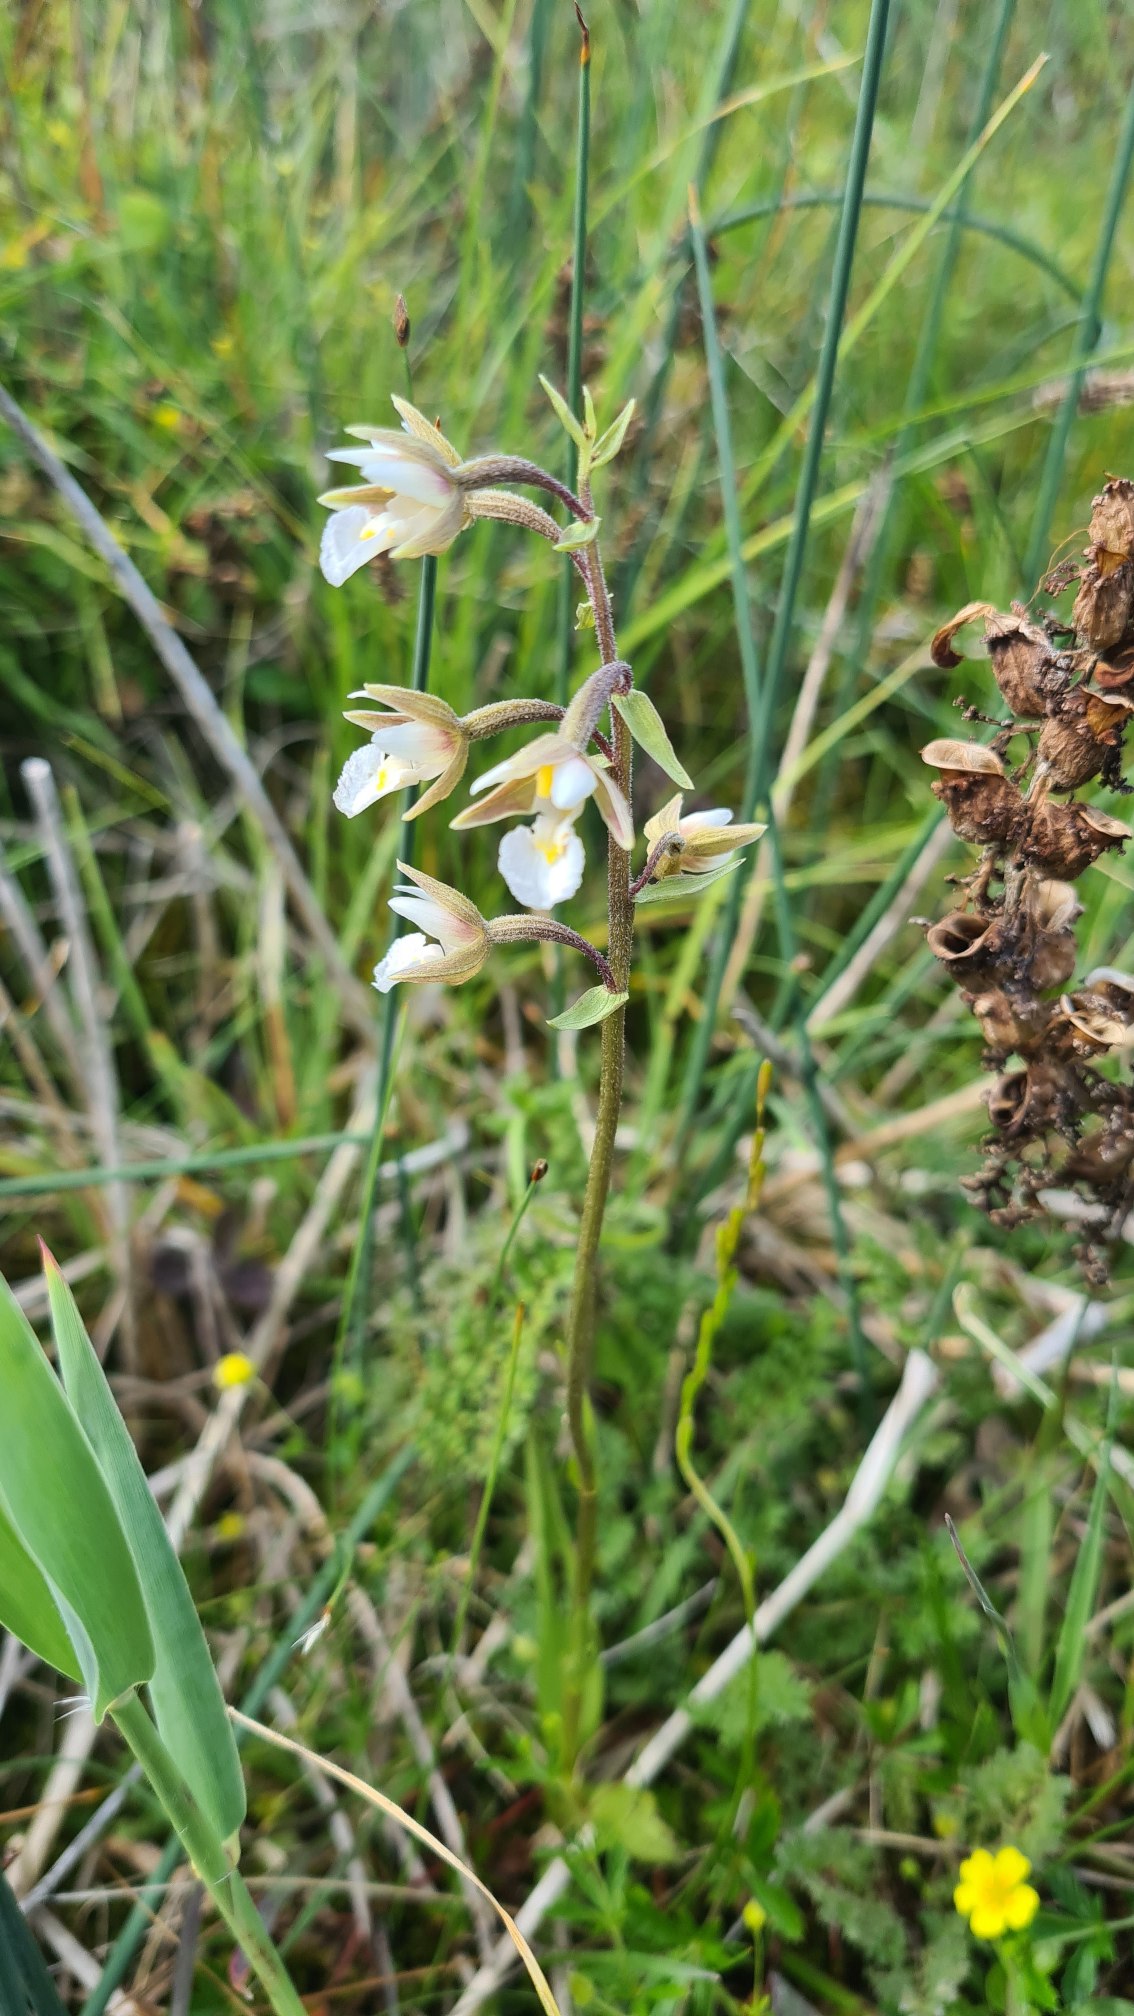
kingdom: Plantae
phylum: Tracheophyta
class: Liliopsida
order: Asparagales
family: Orchidaceae
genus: Epipactis
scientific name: Epipactis palustris
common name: Sump-hullæbe
